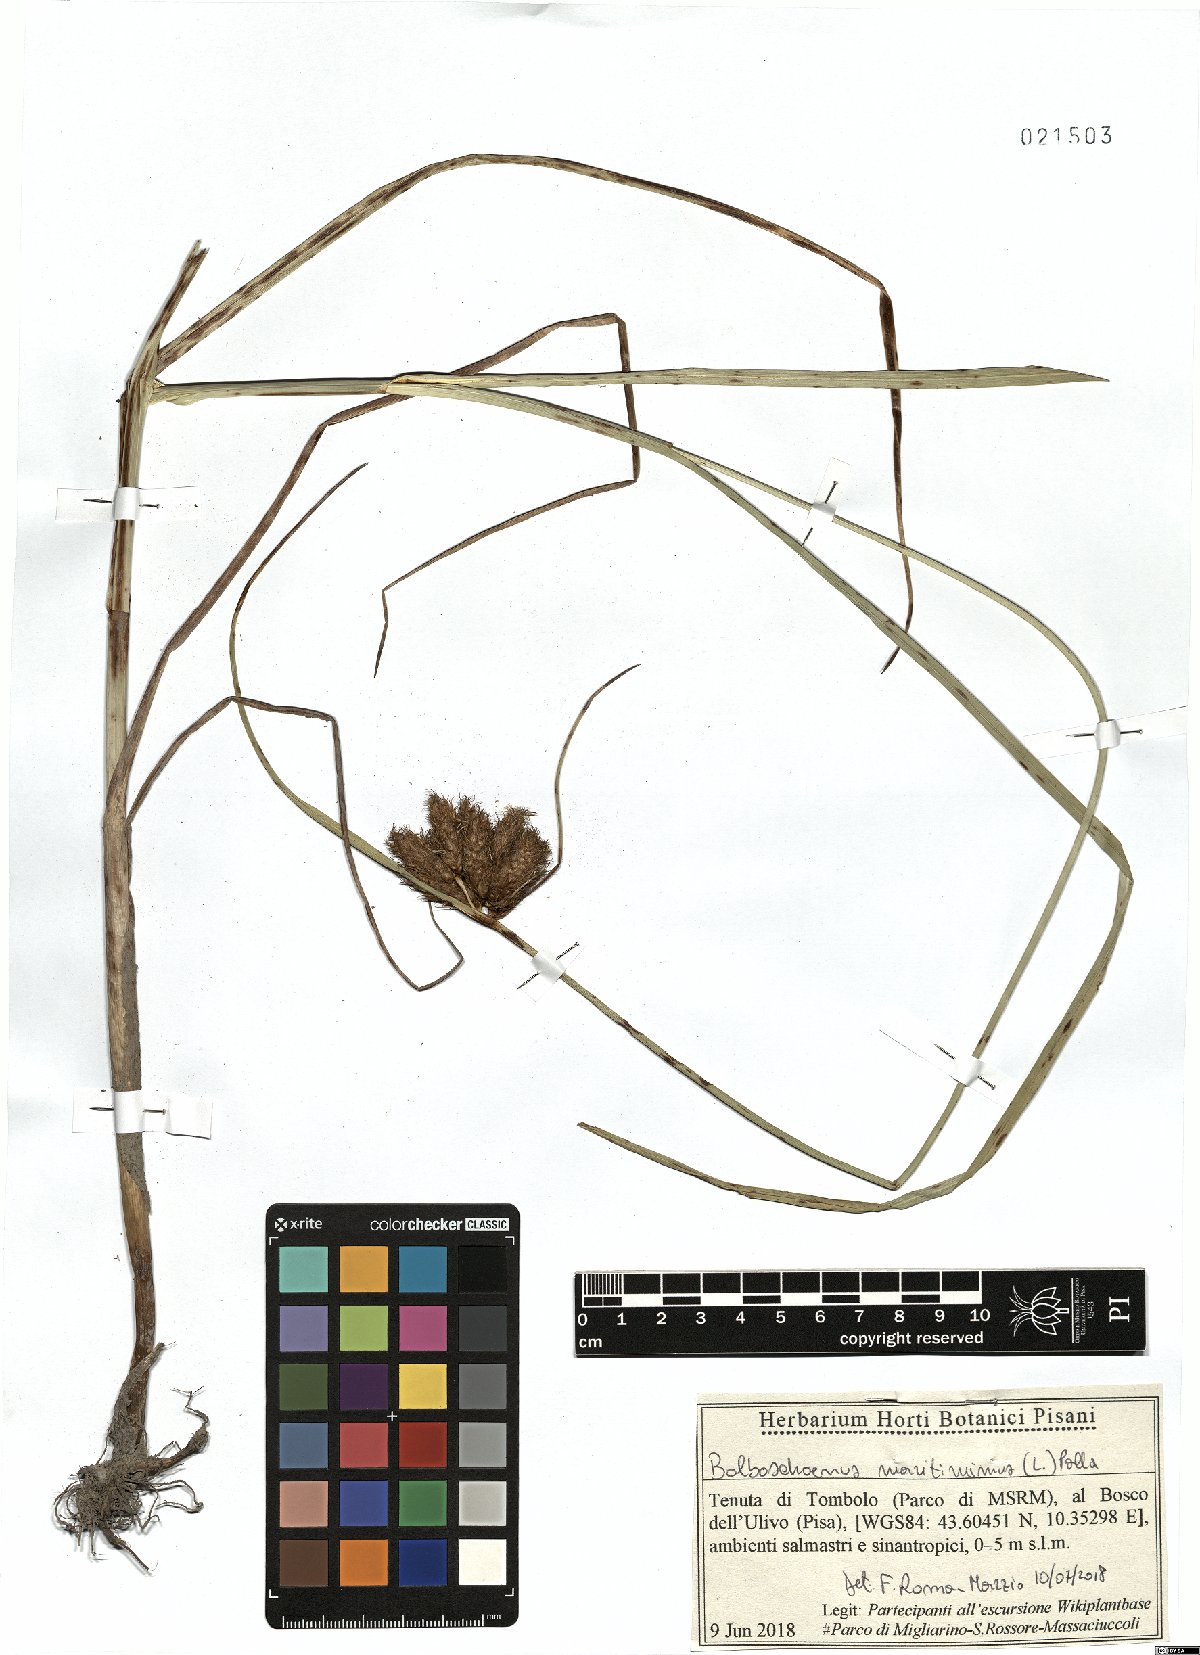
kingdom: Plantae
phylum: Tracheophyta
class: Liliopsida
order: Poales
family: Cyperaceae
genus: Bolboschoenus
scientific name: Bolboschoenus maritimus
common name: Sea club-rush
